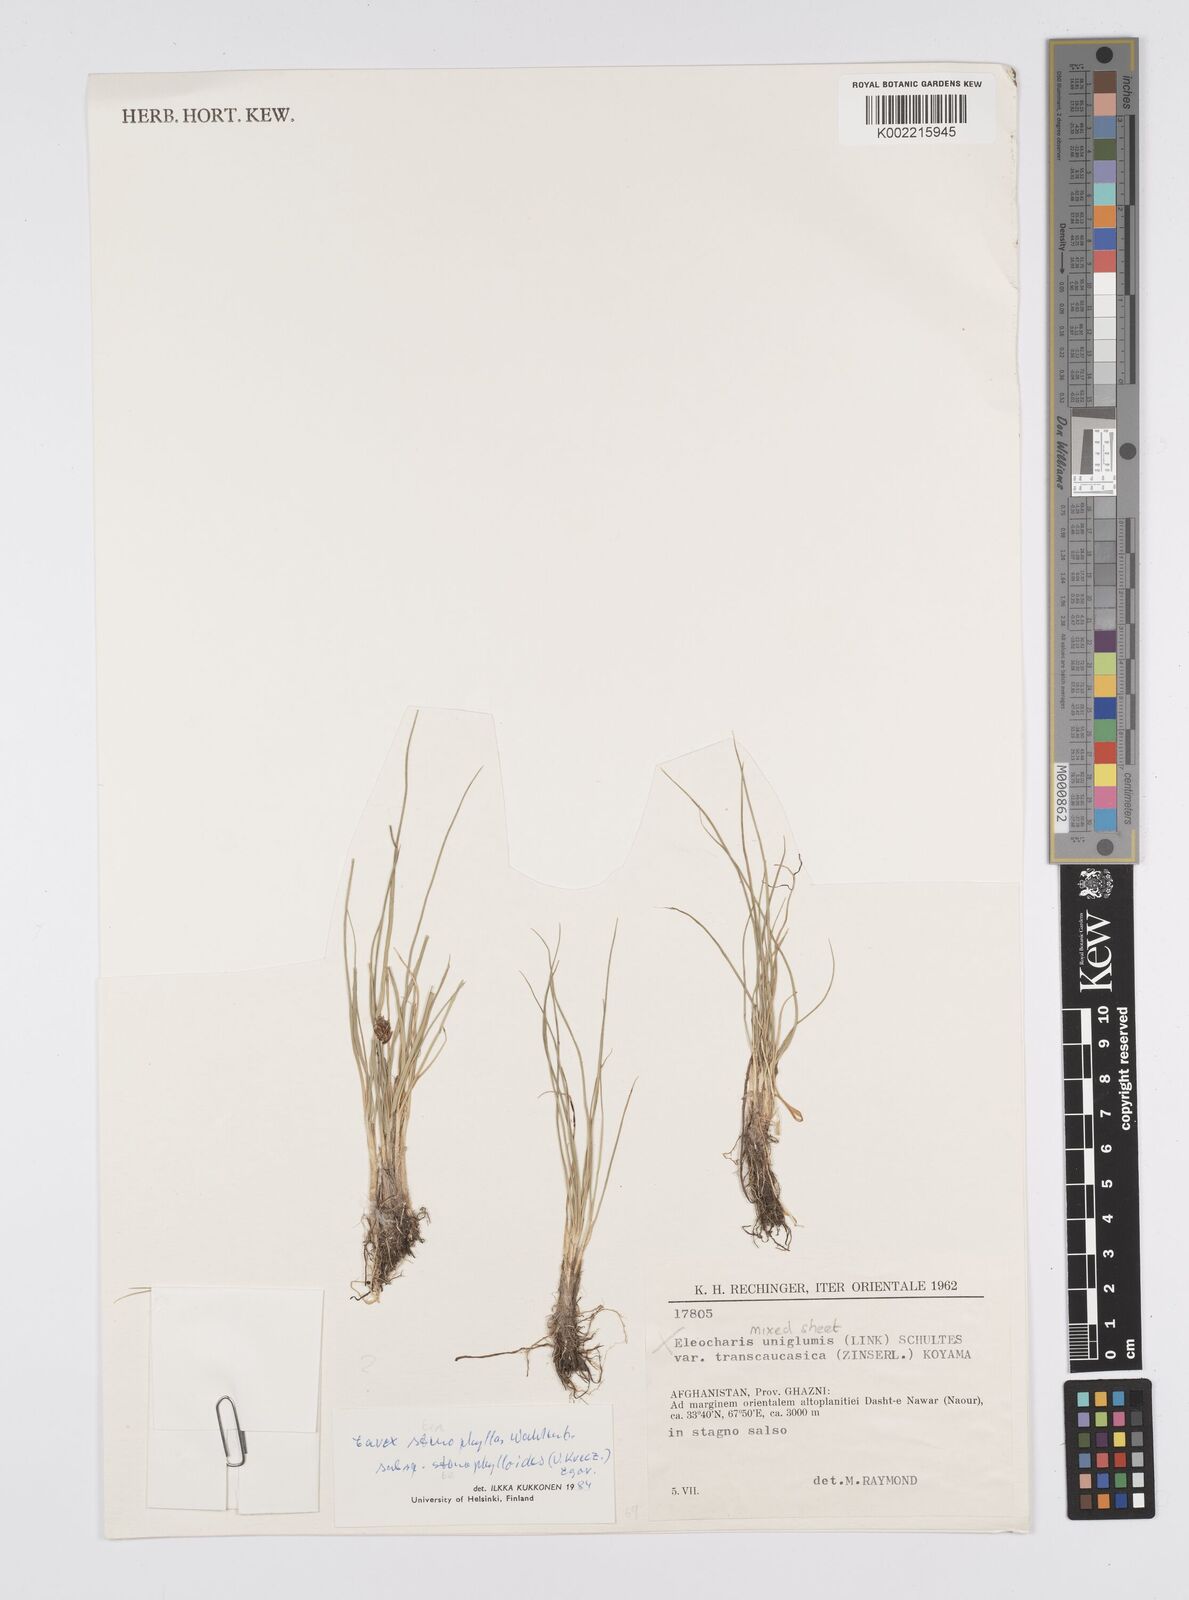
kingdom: Plantae
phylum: Tracheophyta
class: Liliopsida
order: Poales
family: Cyperaceae
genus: Carex
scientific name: Carex stenophylla
